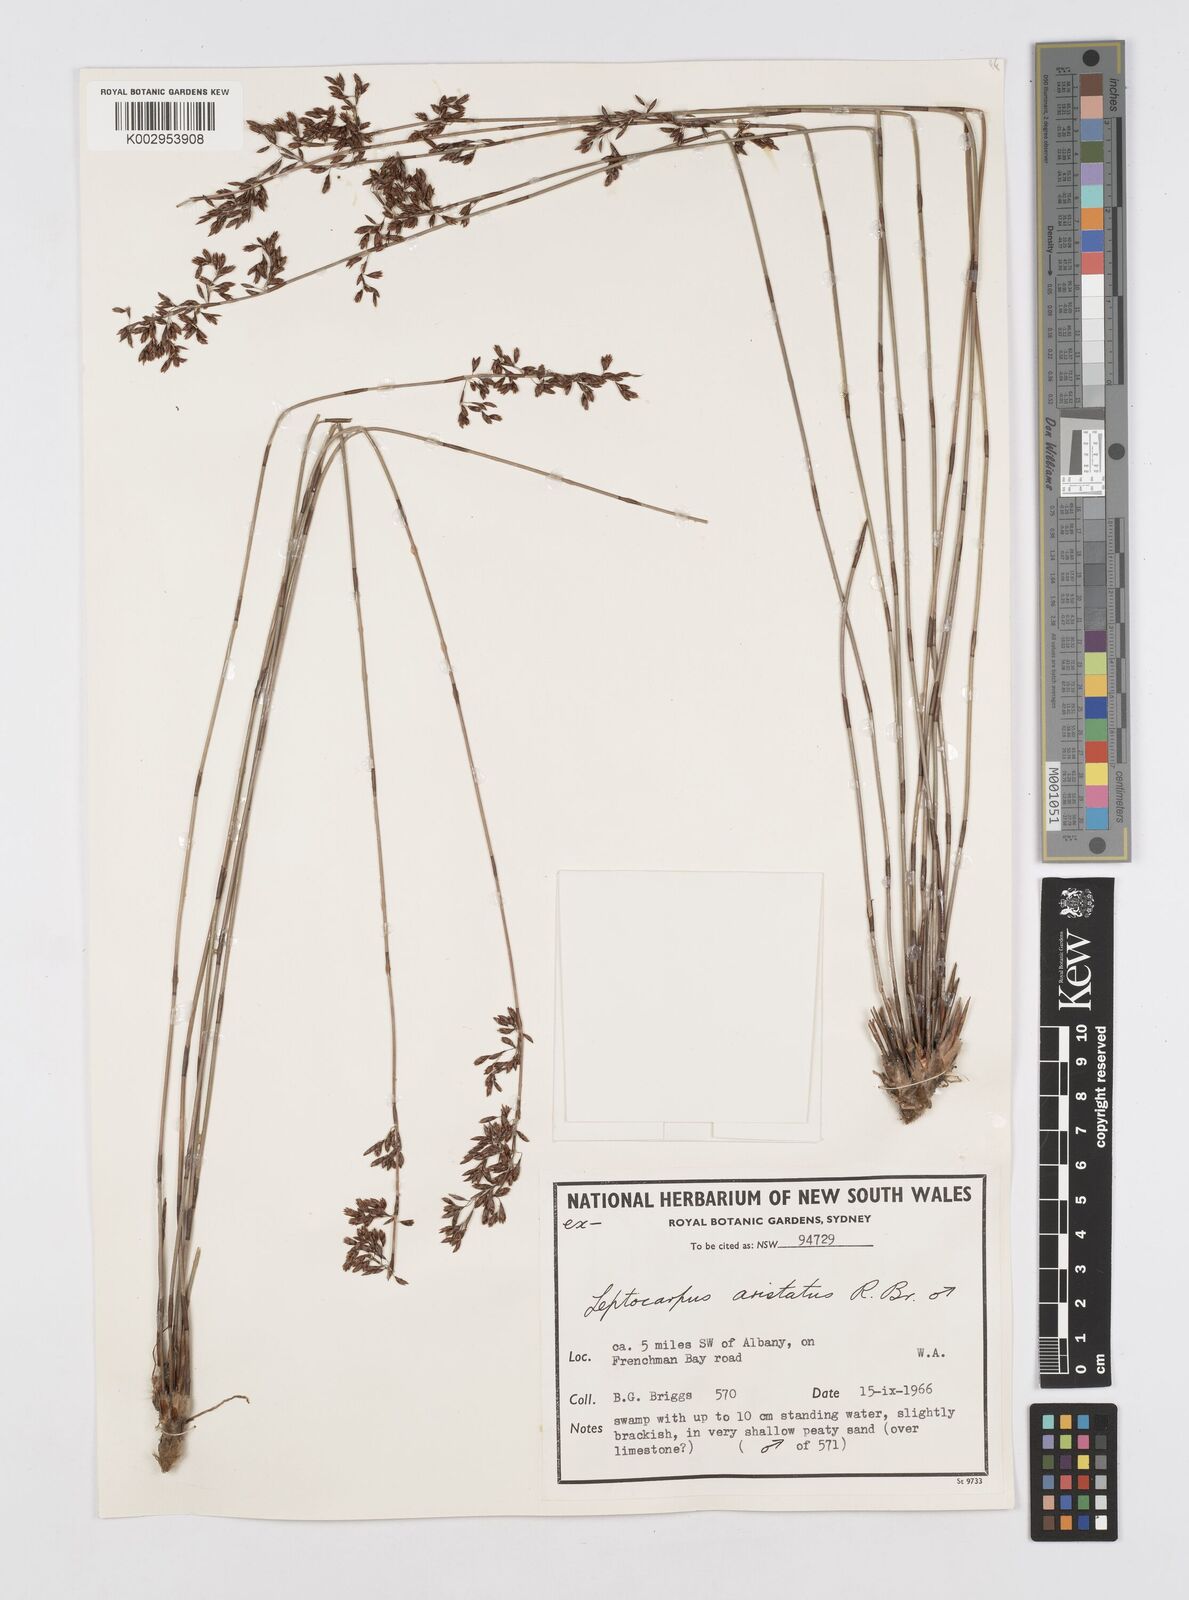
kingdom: Plantae
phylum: Tracheophyta
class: Liliopsida
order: Poales
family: Restionaceae
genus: Chaetanthus
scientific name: Chaetanthus aristatus
